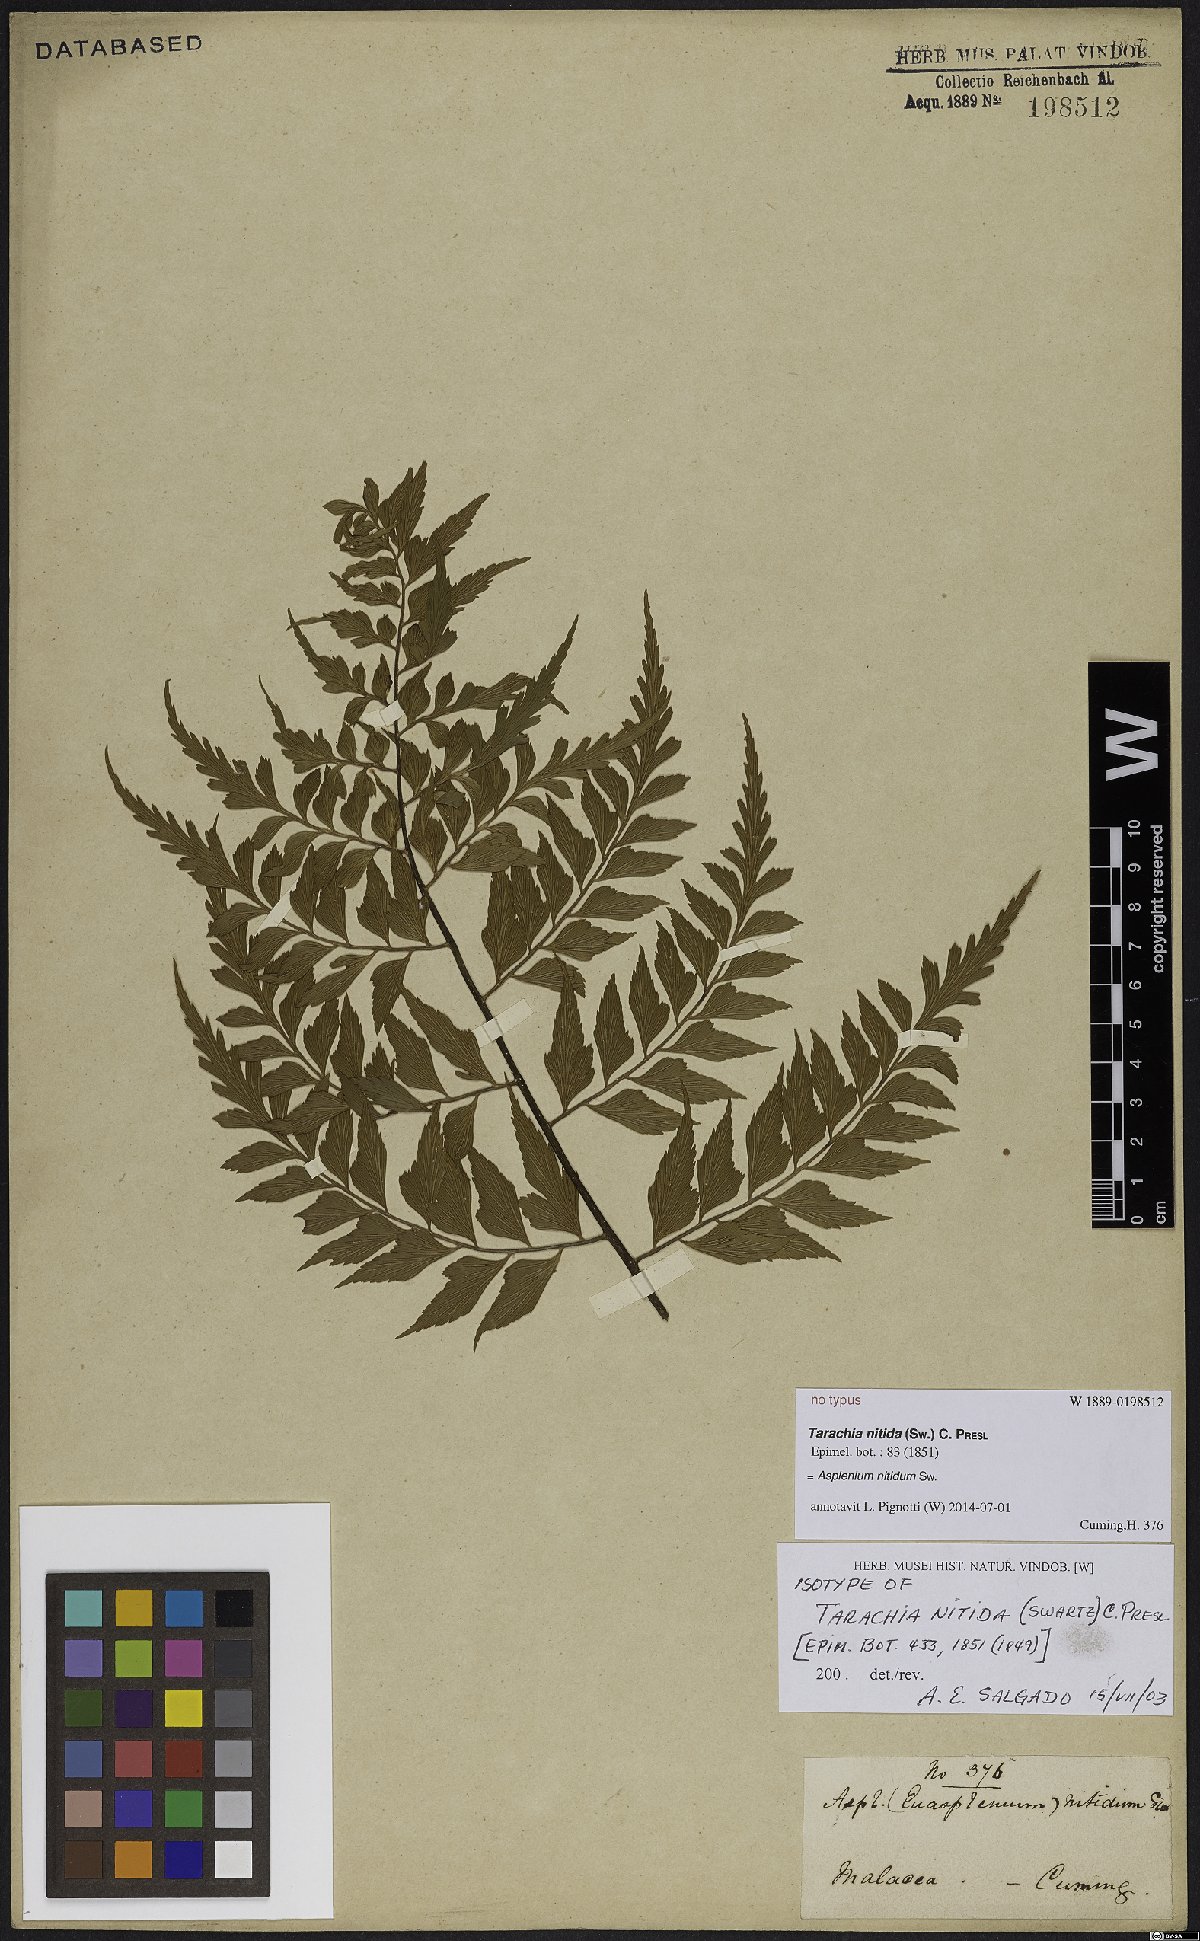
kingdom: Plantae
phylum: Tracheophyta
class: Polypodiopsida
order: Polypodiales
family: Aspleniaceae
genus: Asplenium
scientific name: Asplenium nitidum
